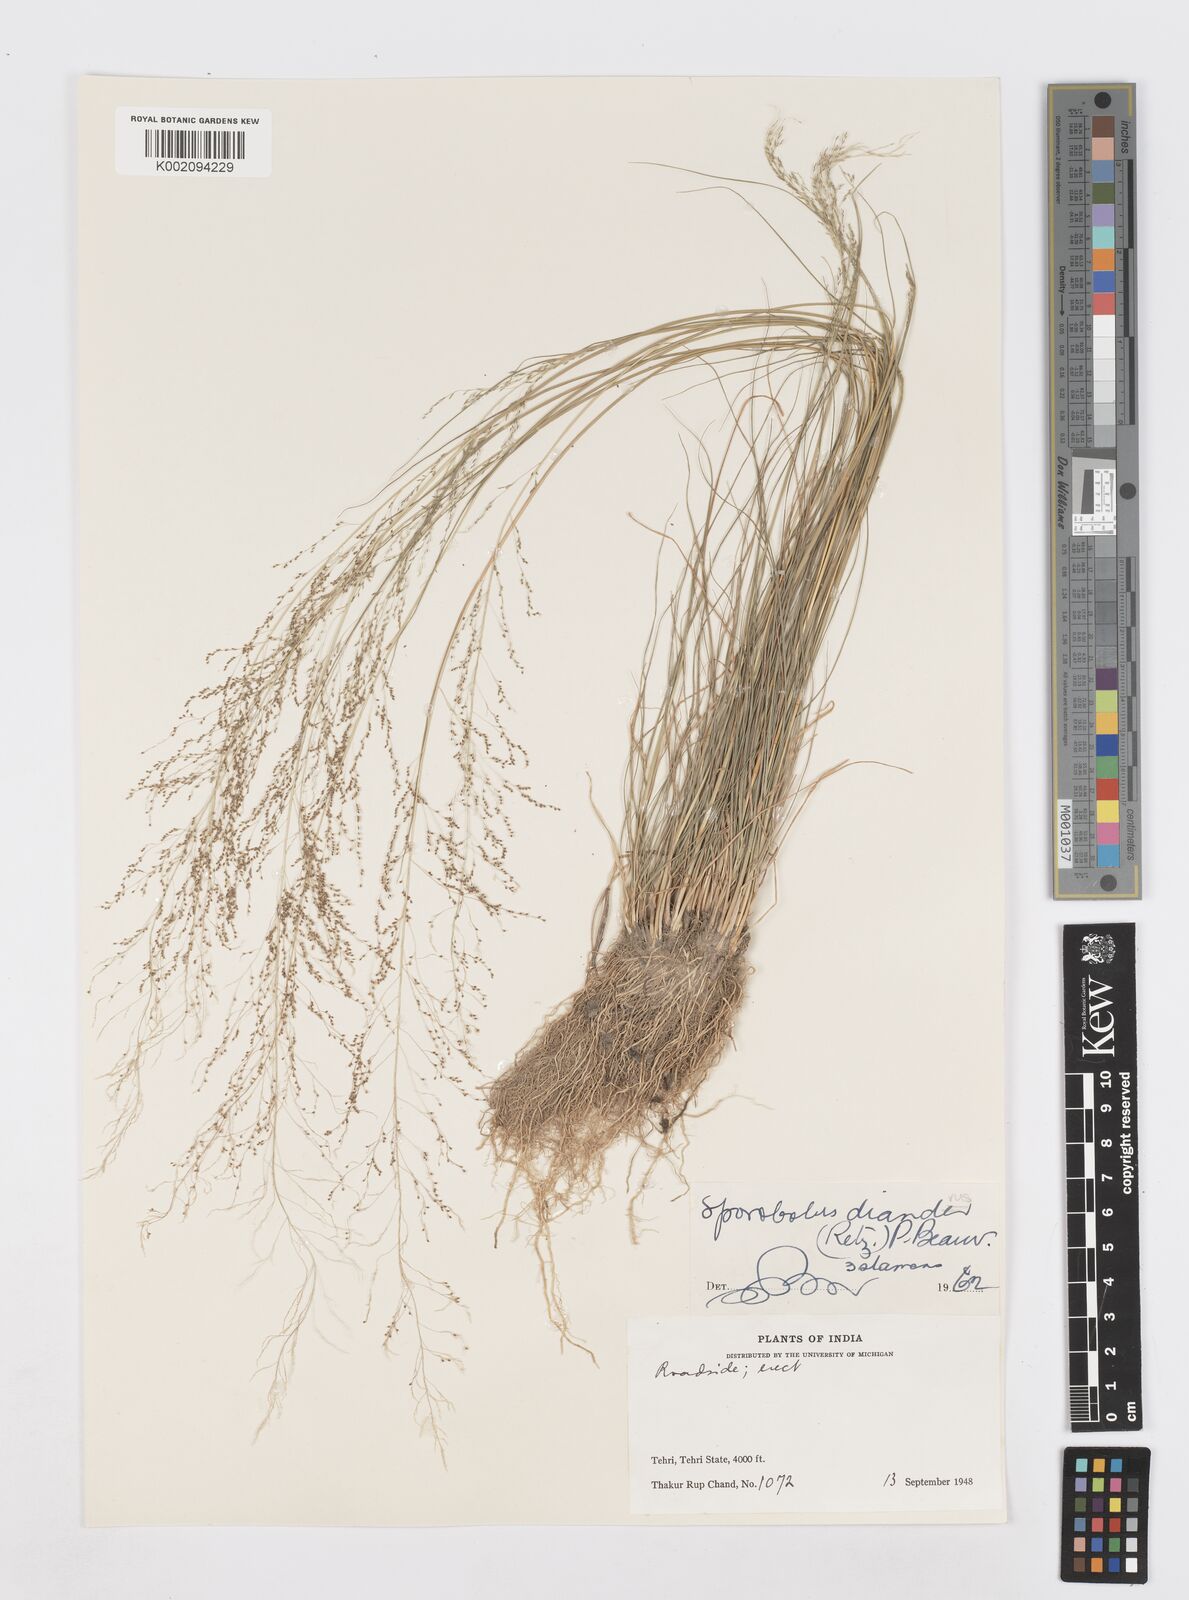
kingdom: Plantae
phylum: Tracheophyta
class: Liliopsida
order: Poales
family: Poaceae
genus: Sporobolus
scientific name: Sporobolus diandrus
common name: Tussock dropseed
